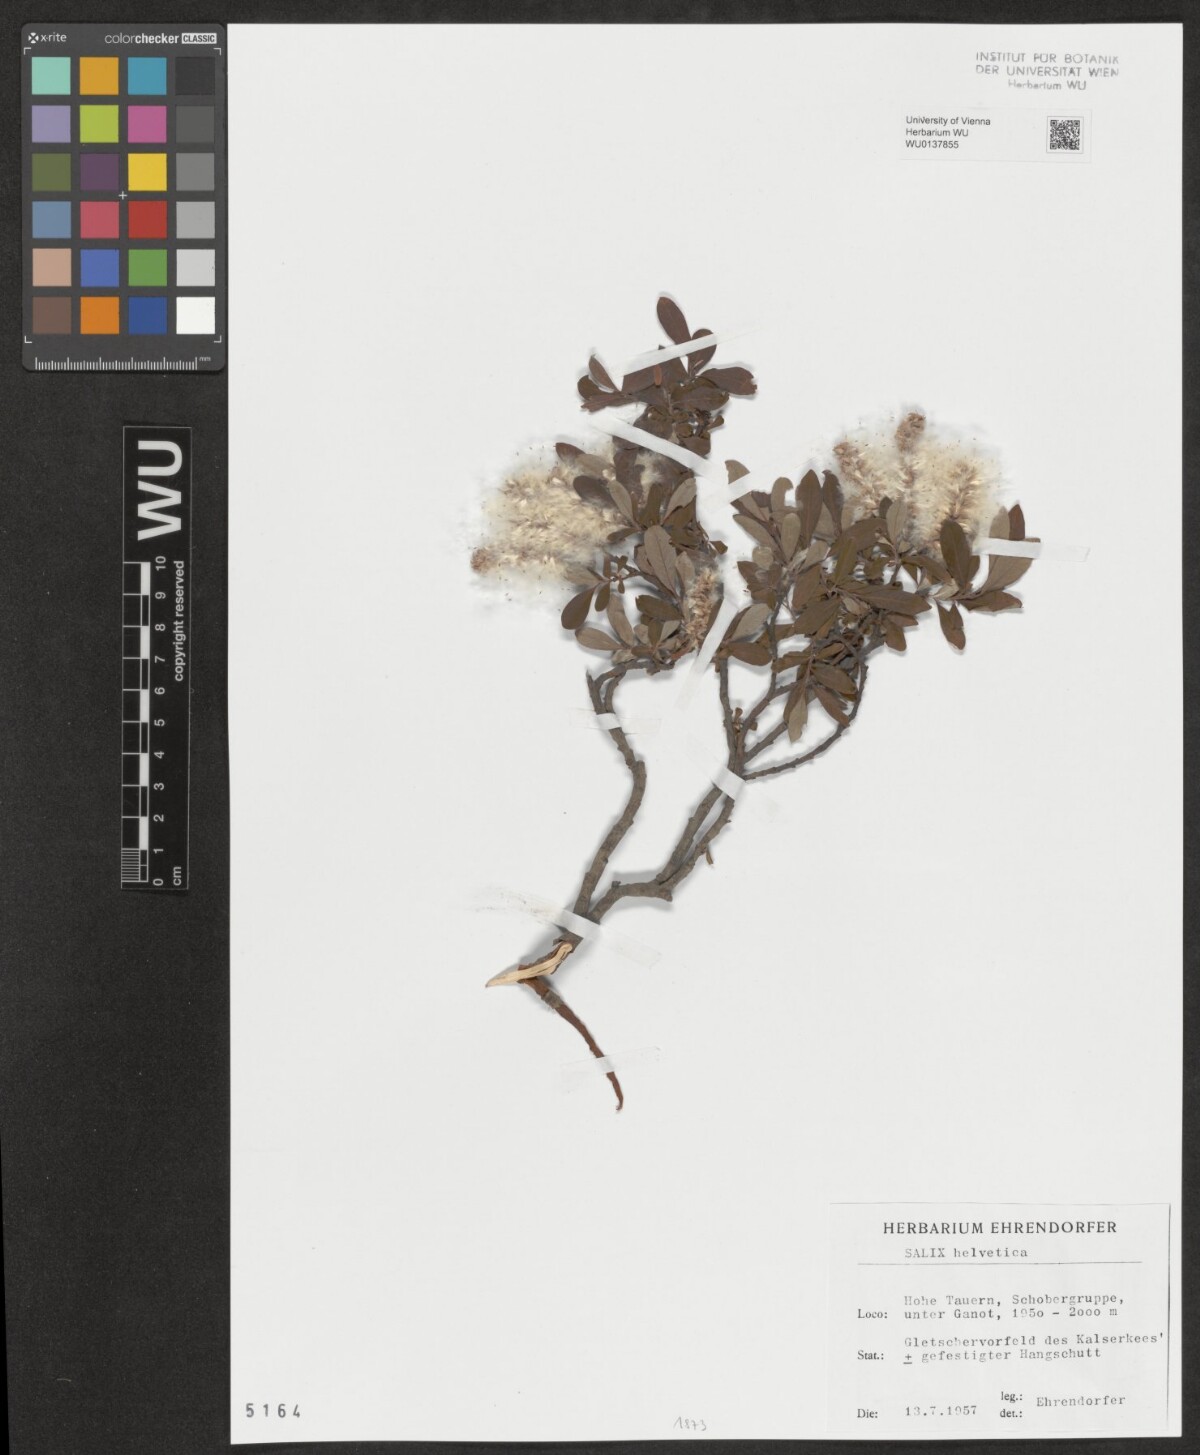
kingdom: Plantae
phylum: Tracheophyta
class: Magnoliopsida
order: Malpighiales
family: Salicaceae
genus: Salix
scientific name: Salix helvetica
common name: Swiss willow
